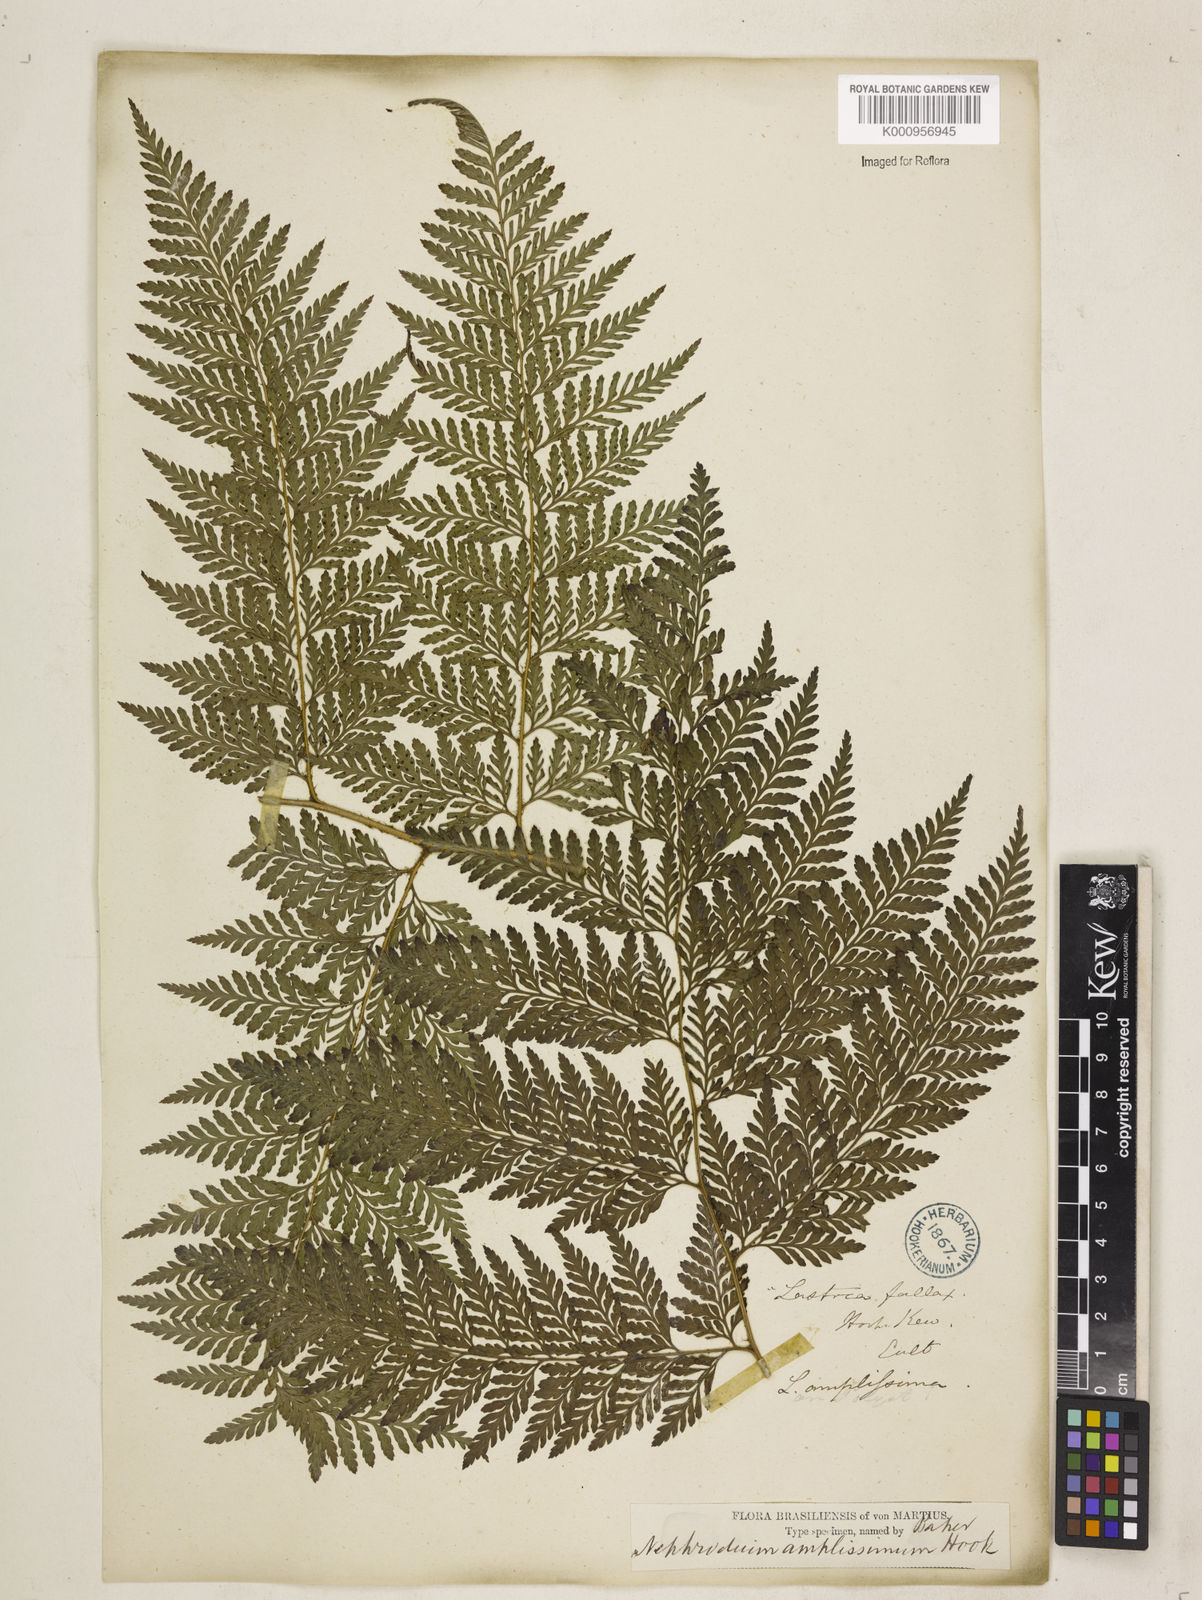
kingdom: Plantae
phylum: Tracheophyta
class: Polypodiopsida
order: Polypodiales
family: Dryopteridaceae
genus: Lastreopsis
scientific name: Lastreopsis amplissima
